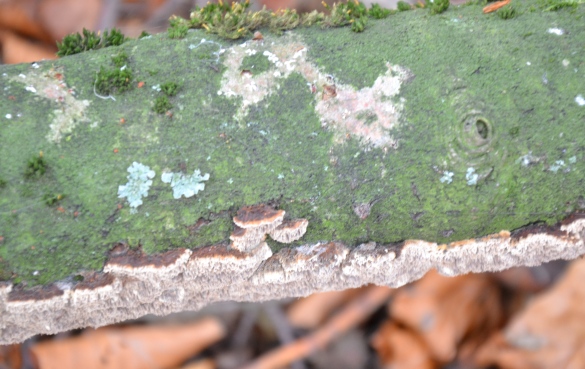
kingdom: Fungi
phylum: Basidiomycota
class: Agaricomycetes
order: Hymenochaetales
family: Hymenochaetaceae
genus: Mensularia
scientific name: Mensularia nodulosa
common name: bøge-spejlporesvamp
